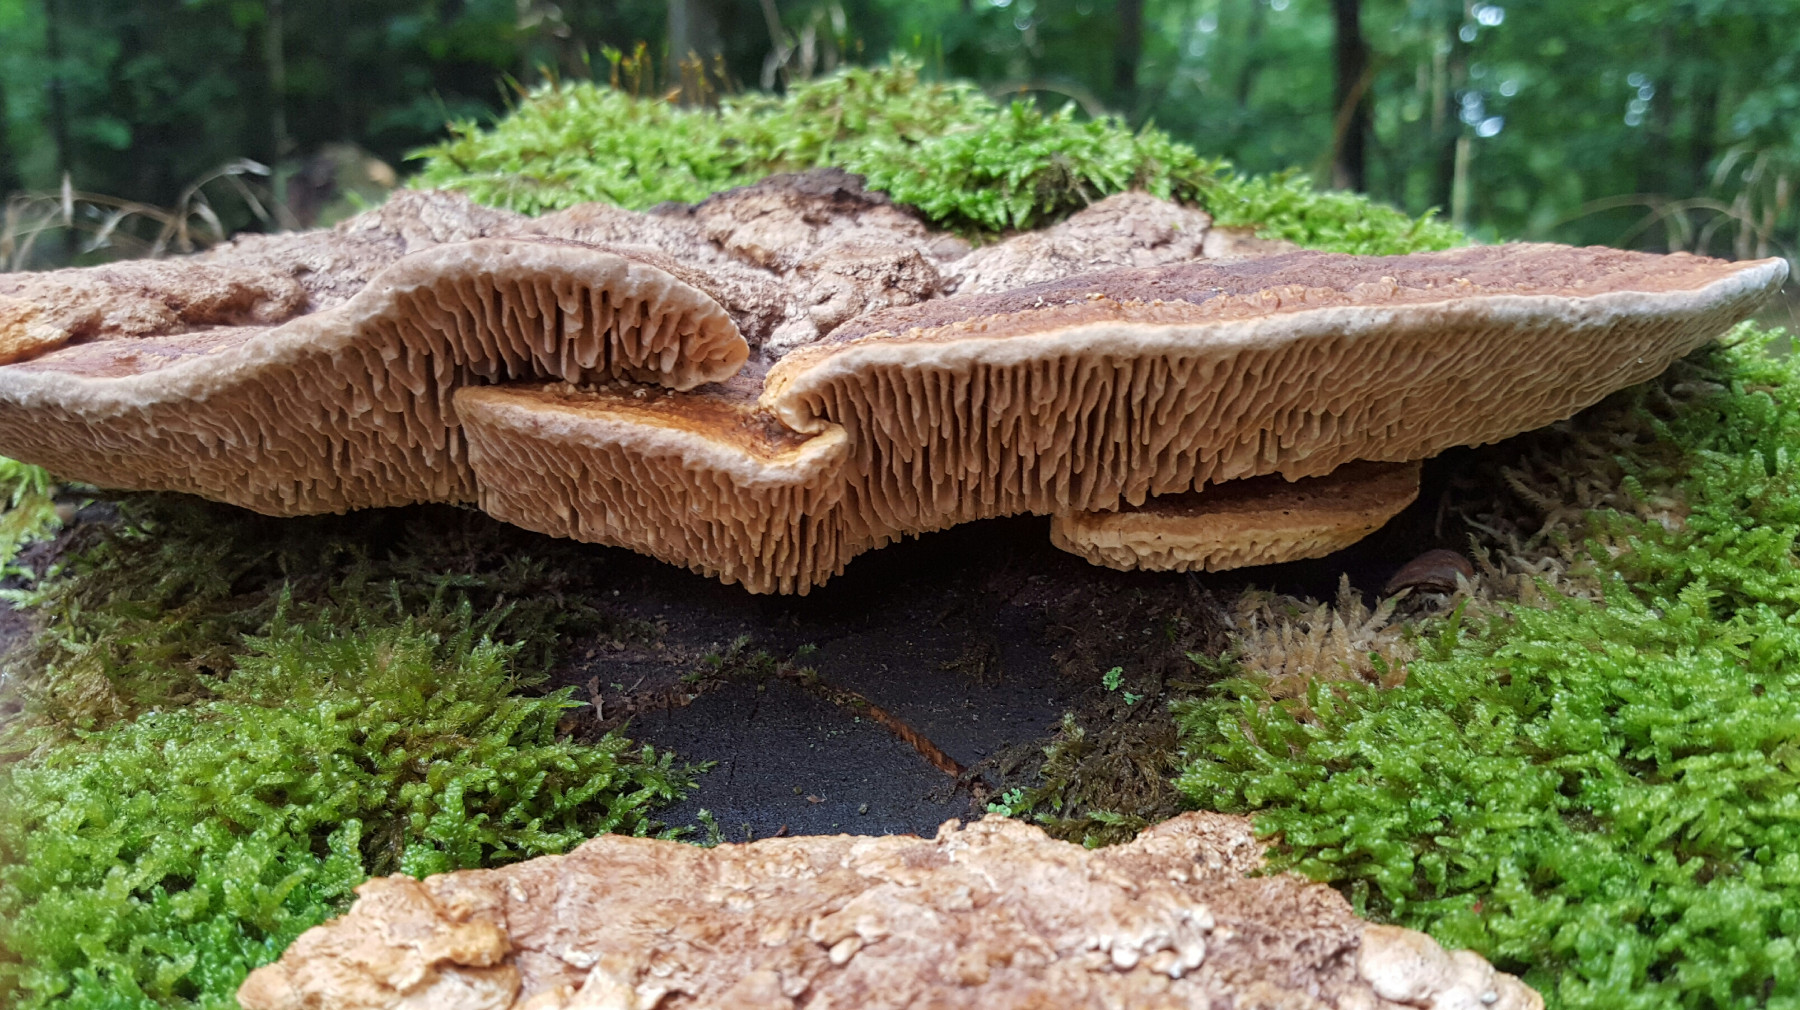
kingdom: Fungi
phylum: Basidiomycota
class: Agaricomycetes
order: Polyporales
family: Fomitopsidaceae
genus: Daedalea
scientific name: Daedalea quercina
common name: ege-labyrintsvamp
